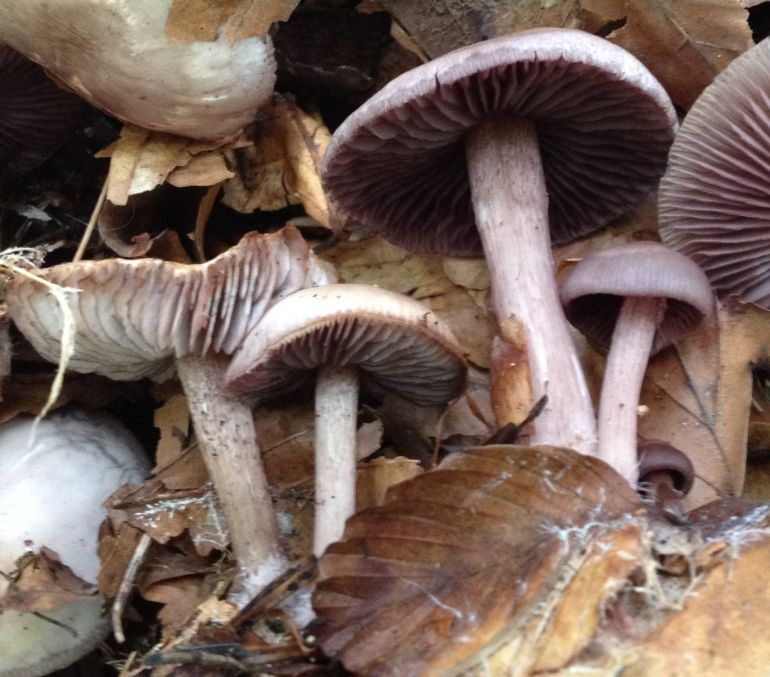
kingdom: Fungi
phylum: Basidiomycota
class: Agaricomycetes
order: Agaricales
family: Mycenaceae
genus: Mycena
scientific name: Mycena pelianthina
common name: mørkbladet huesvamp
